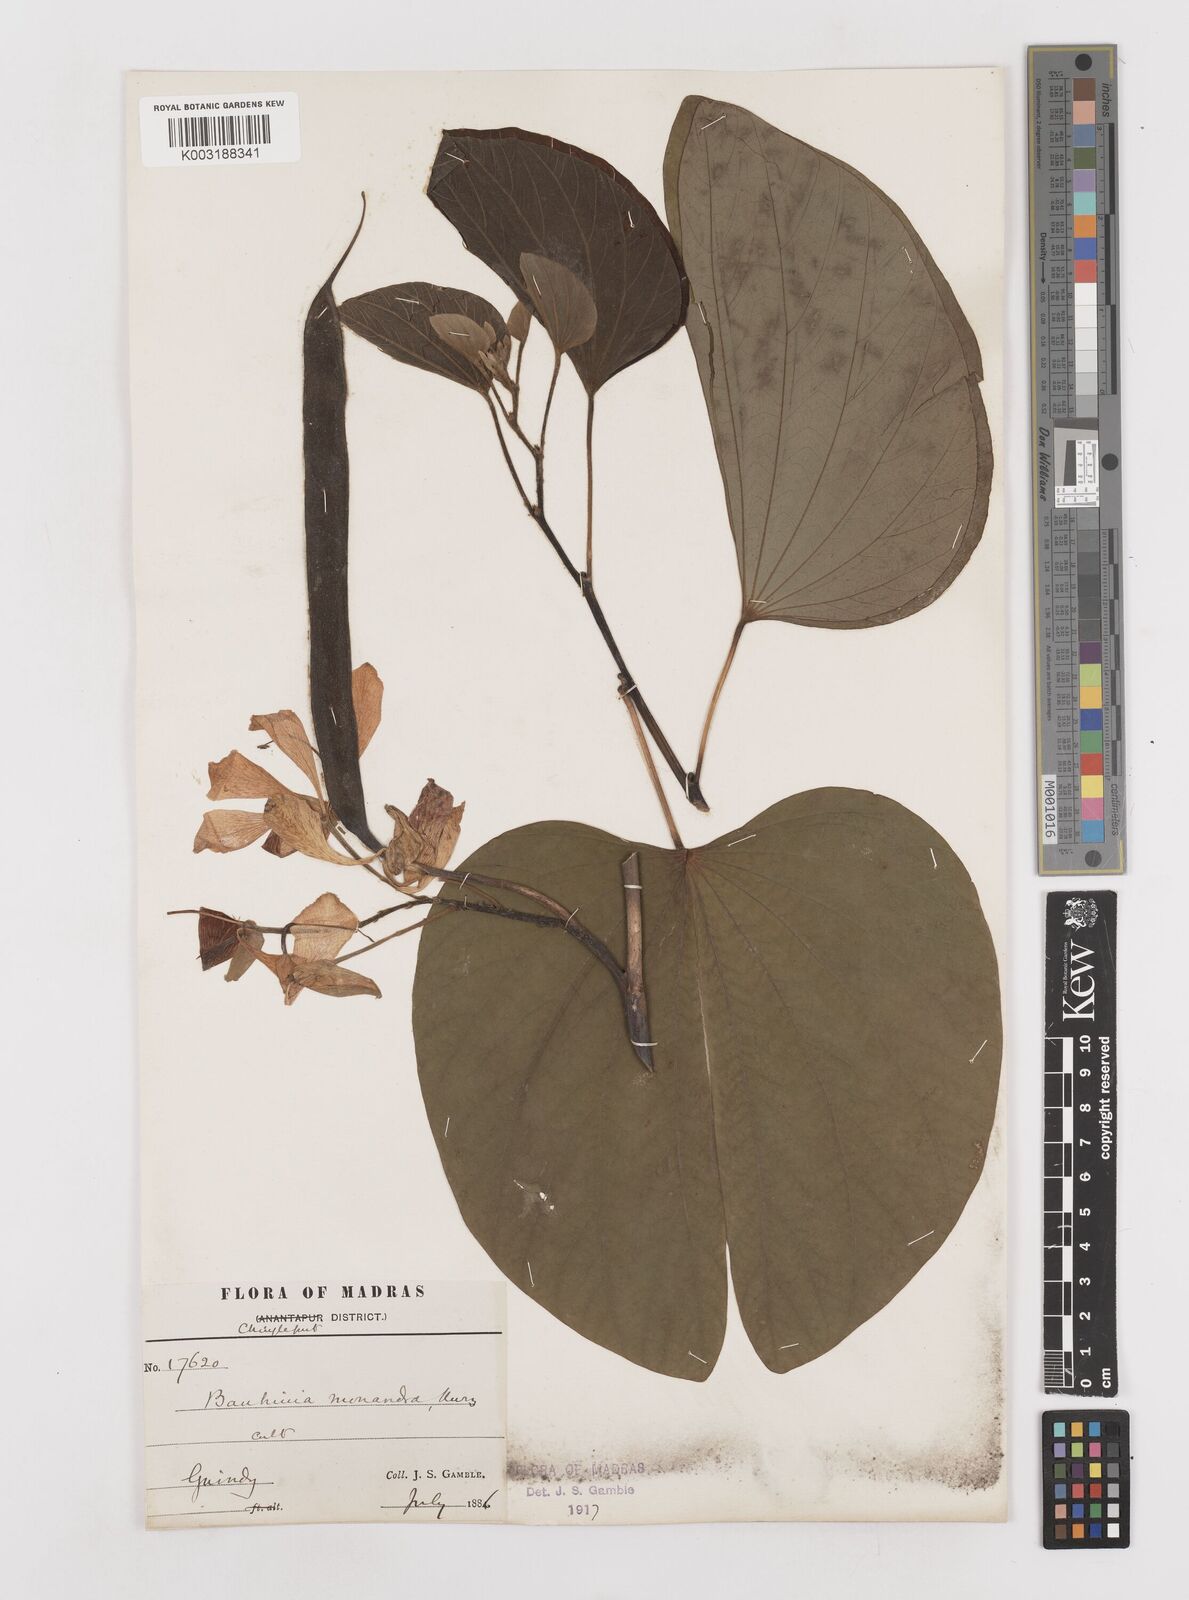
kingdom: Plantae
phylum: Tracheophyta
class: Magnoliopsida
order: Fabales
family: Fabaceae
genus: Bauhinia
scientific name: Bauhinia monandra
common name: Napoleon's plume
